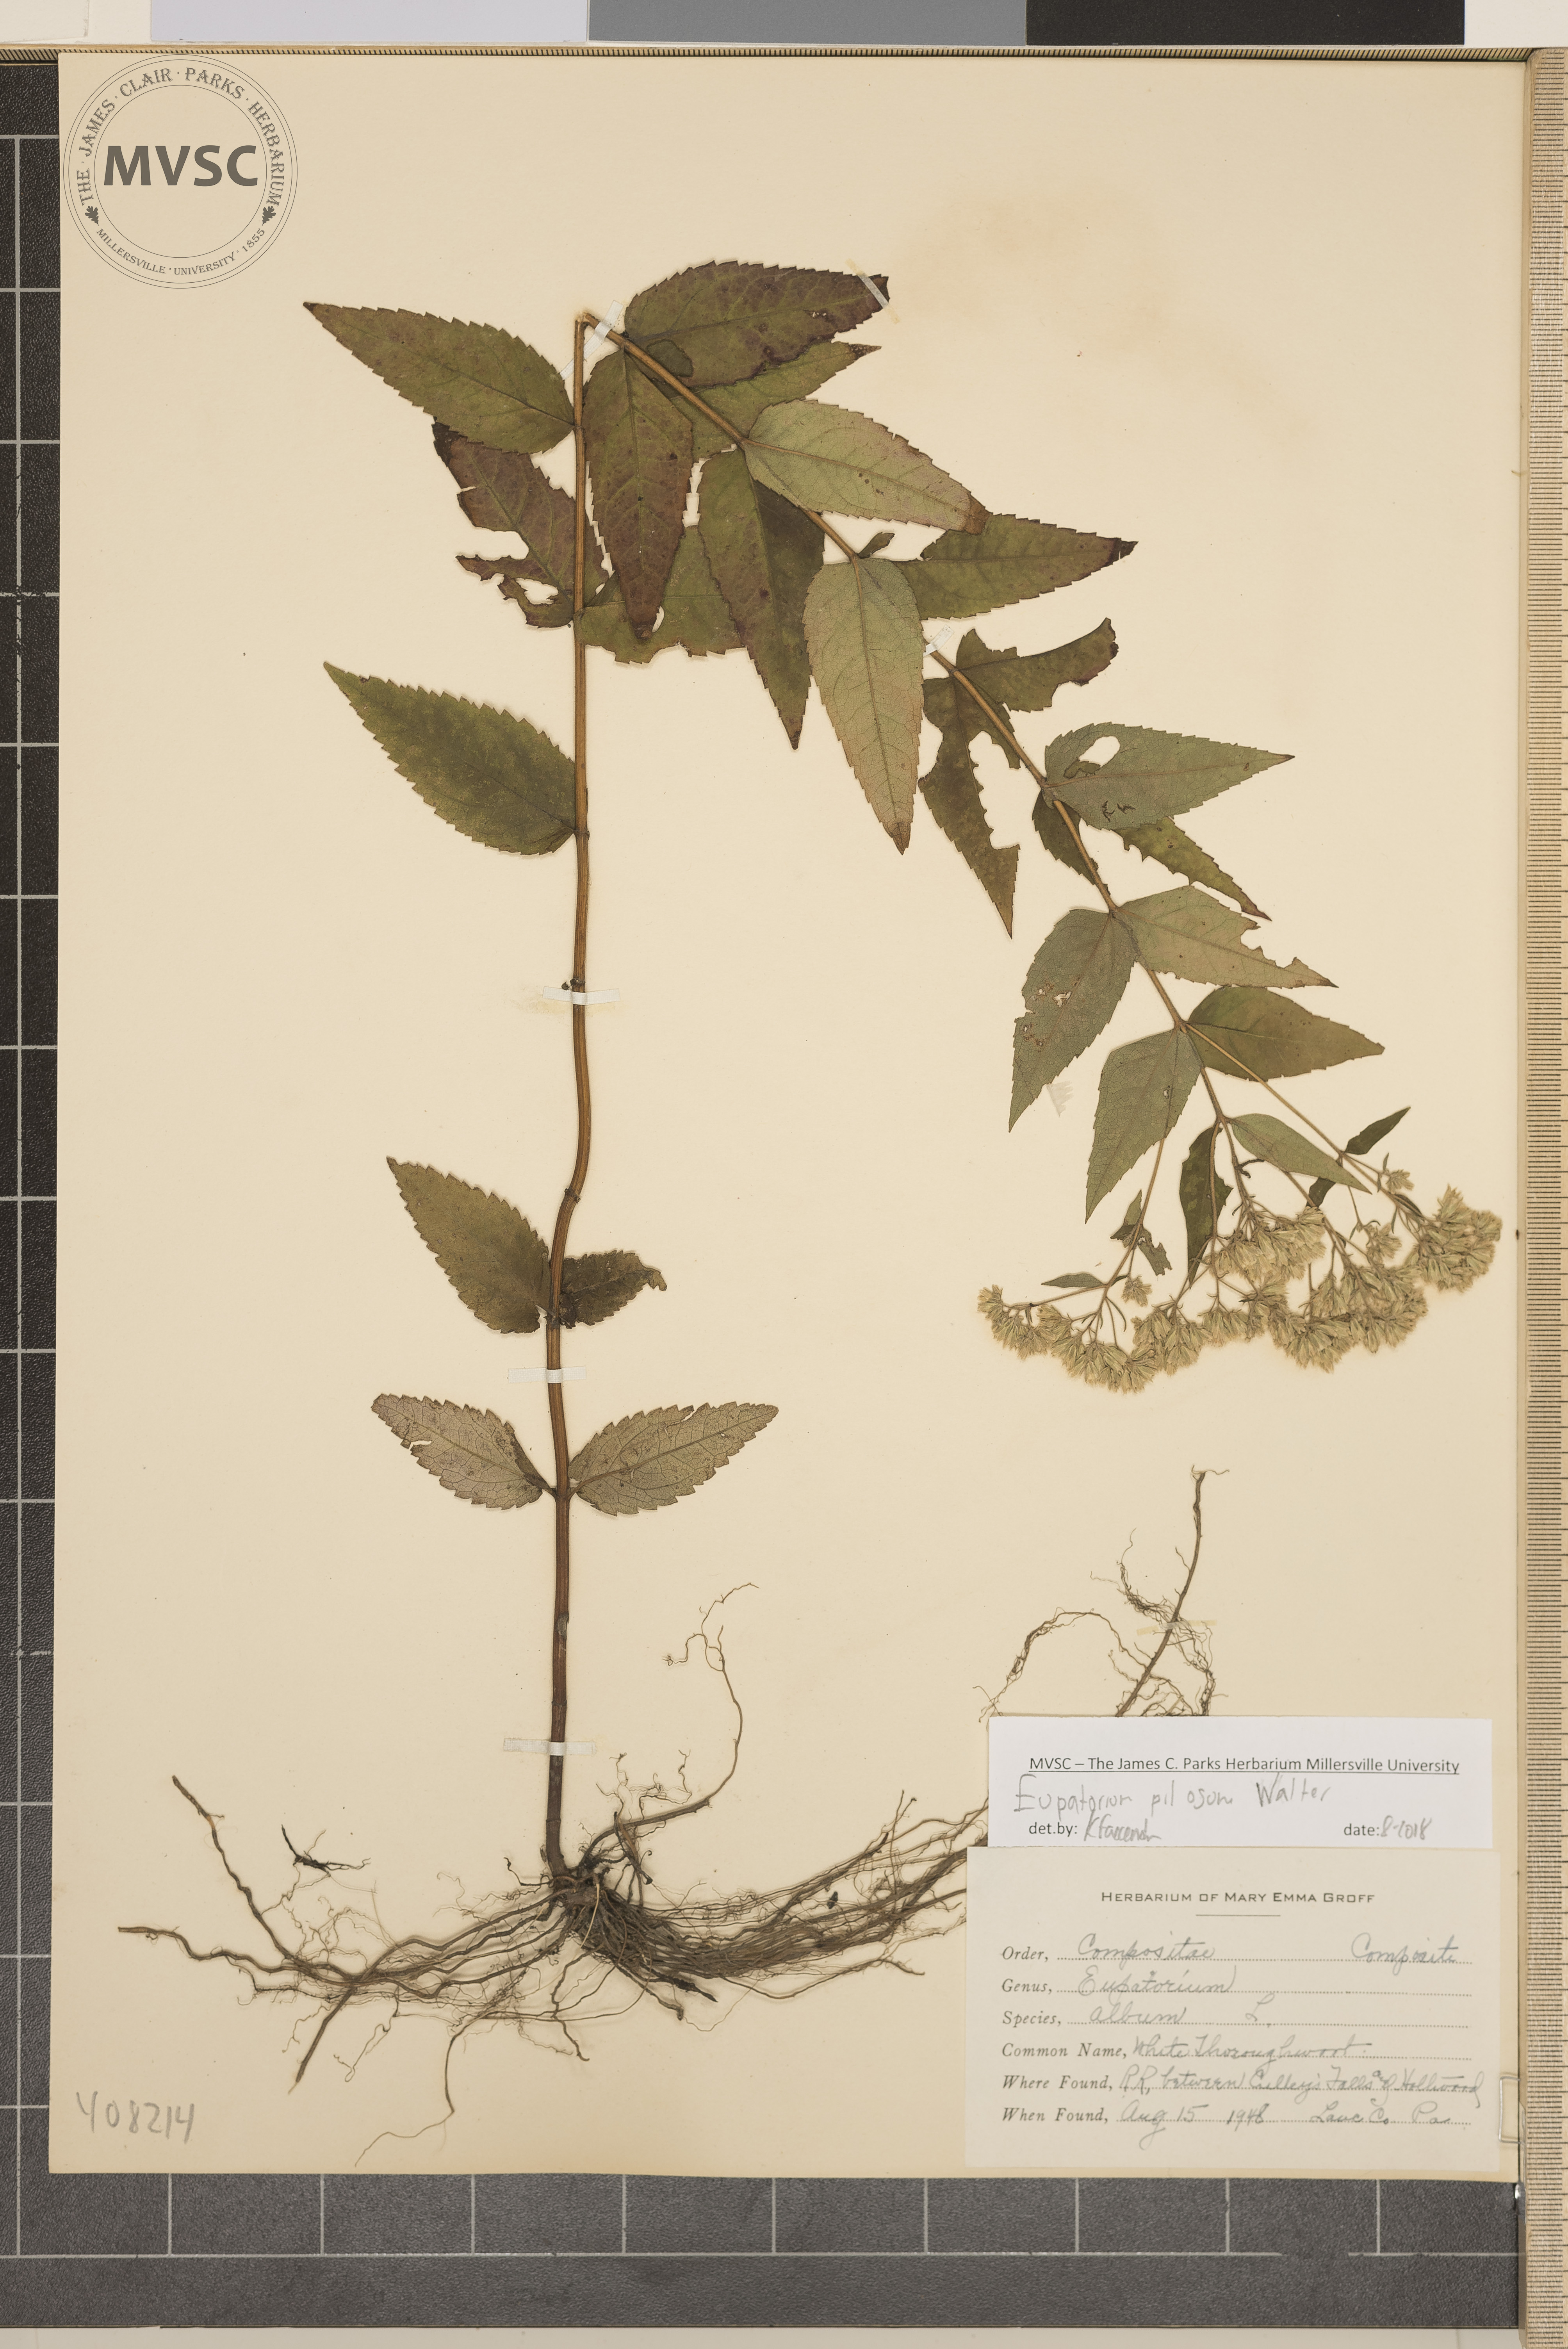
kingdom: Plantae
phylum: Tracheophyta
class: Magnoliopsida
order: Asterales
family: Asteraceae
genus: Eupatorium
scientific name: Eupatorium pilosum
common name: white thoroughwort
